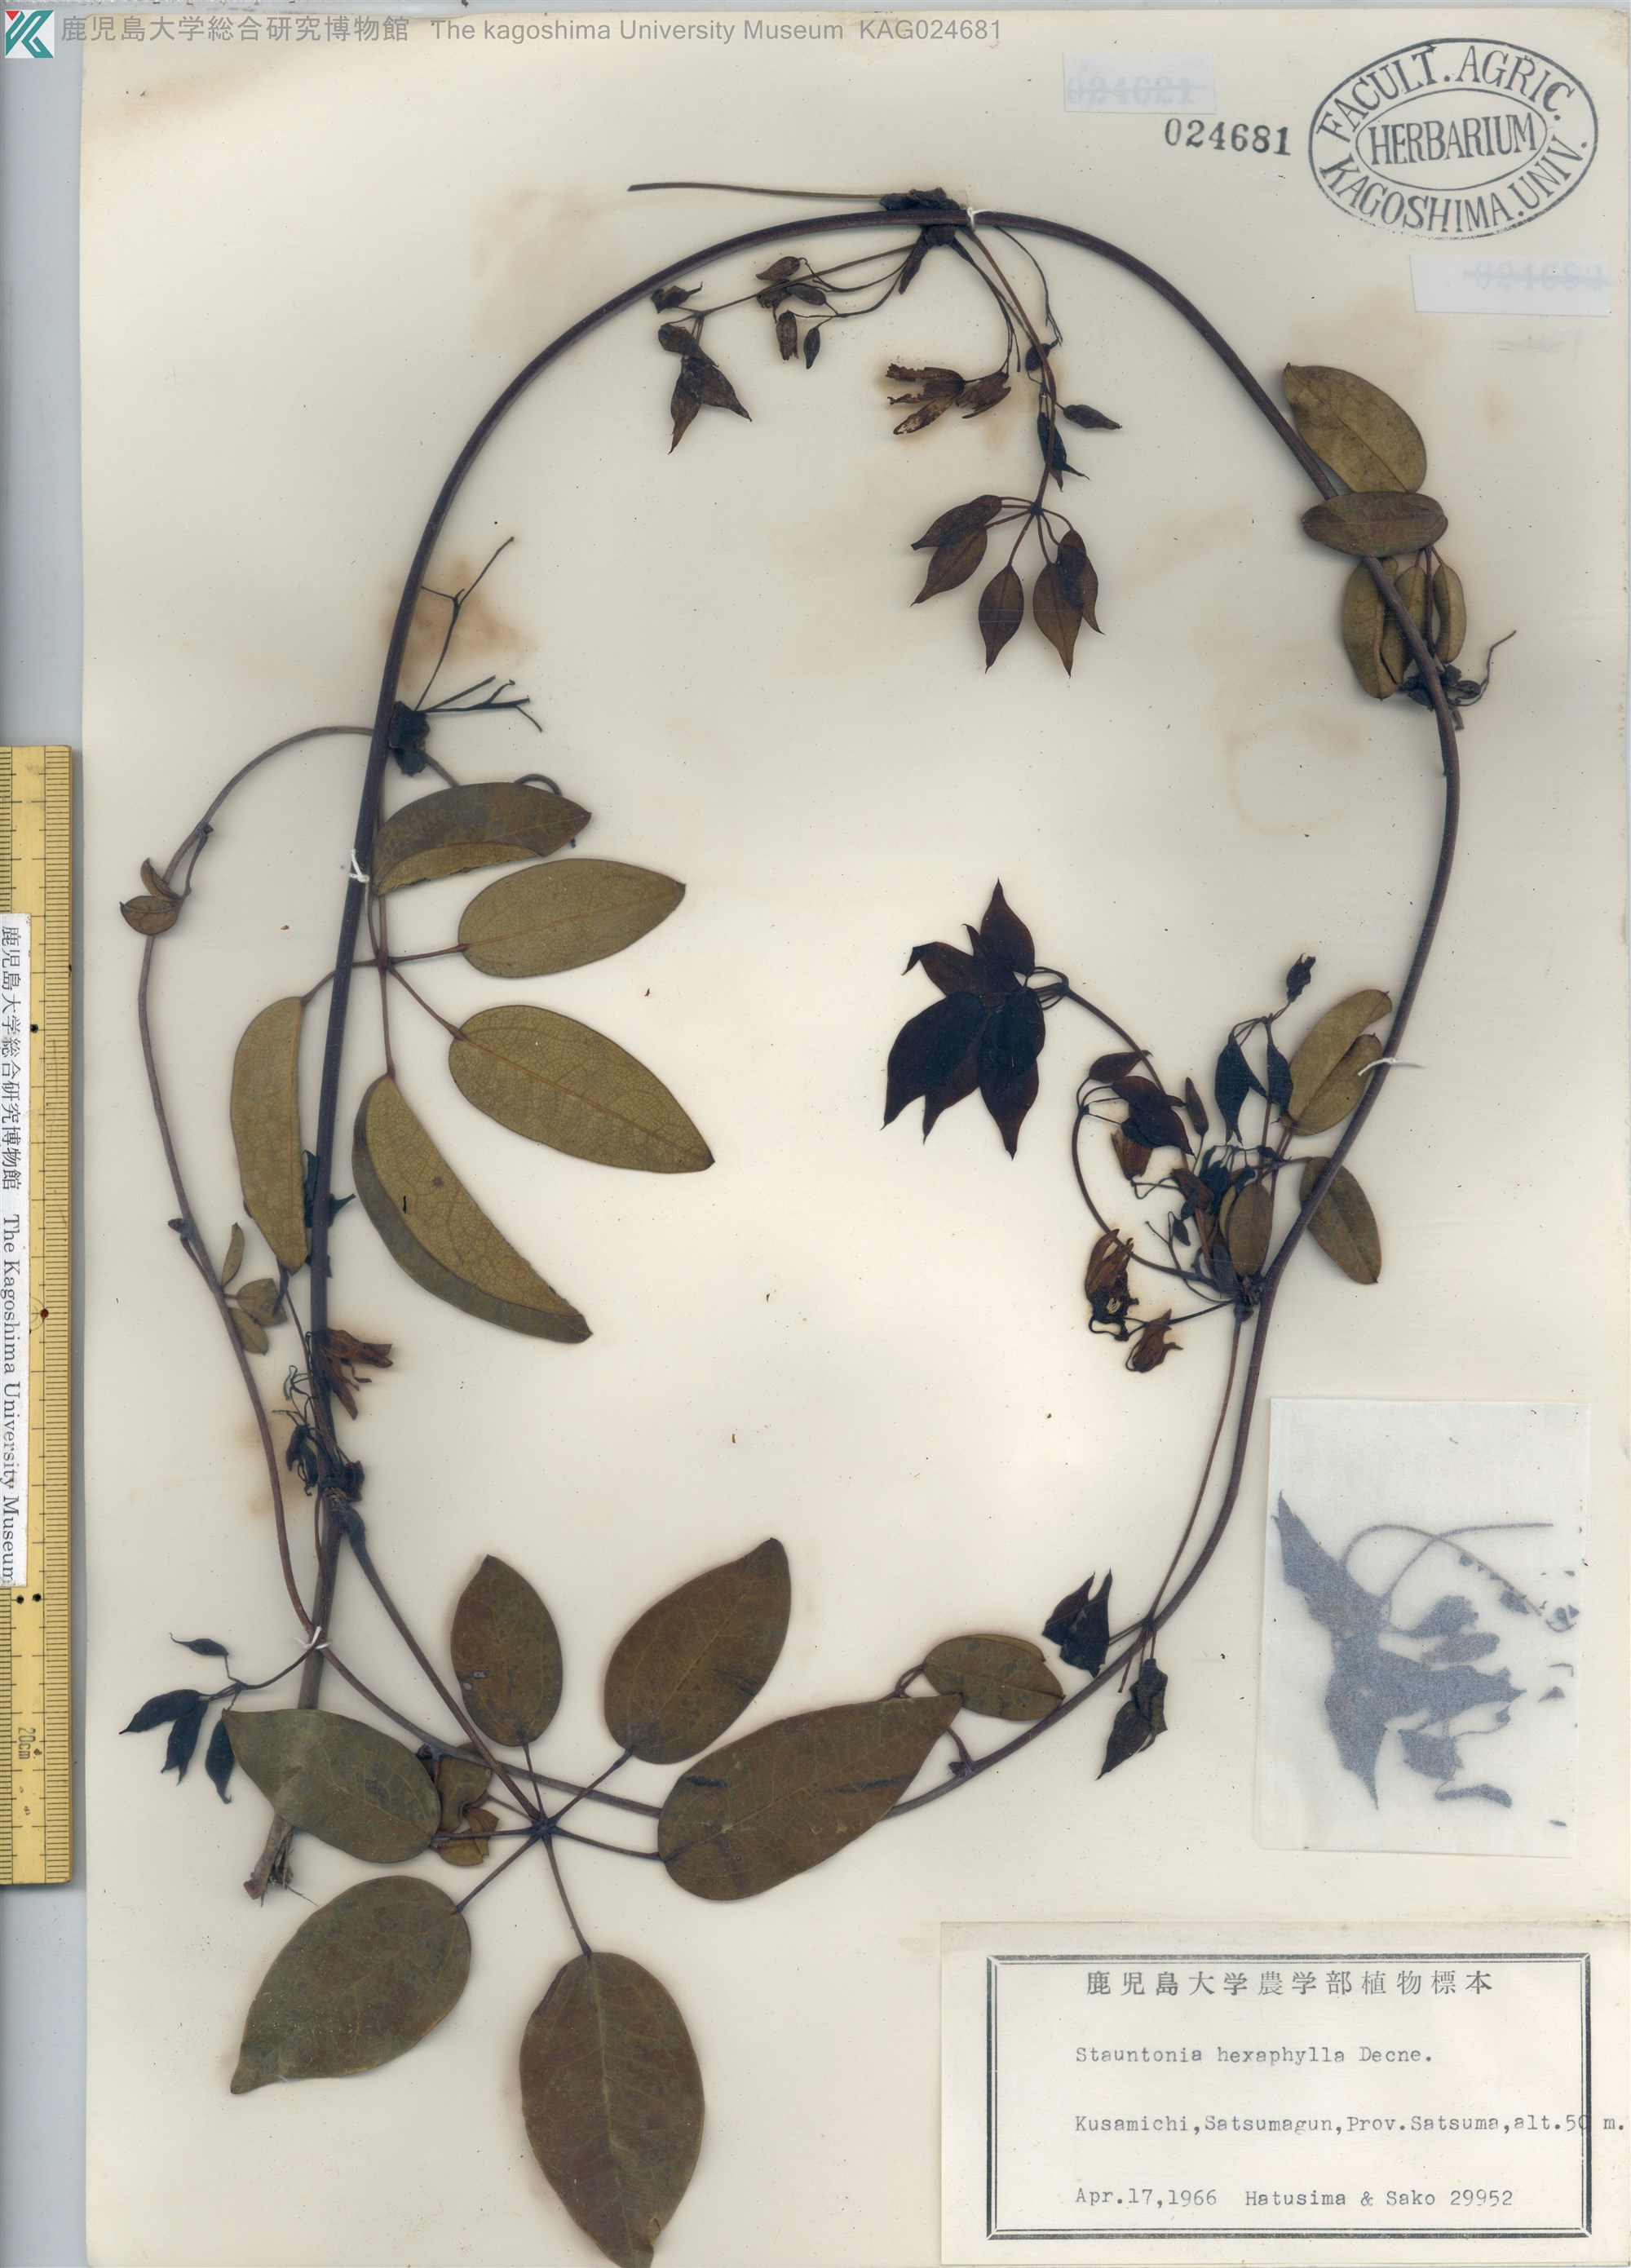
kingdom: Plantae
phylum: Tracheophyta
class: Magnoliopsida
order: Ranunculales
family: Lardizabalaceae
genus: Stauntonia
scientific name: Stauntonia hexaphylla
